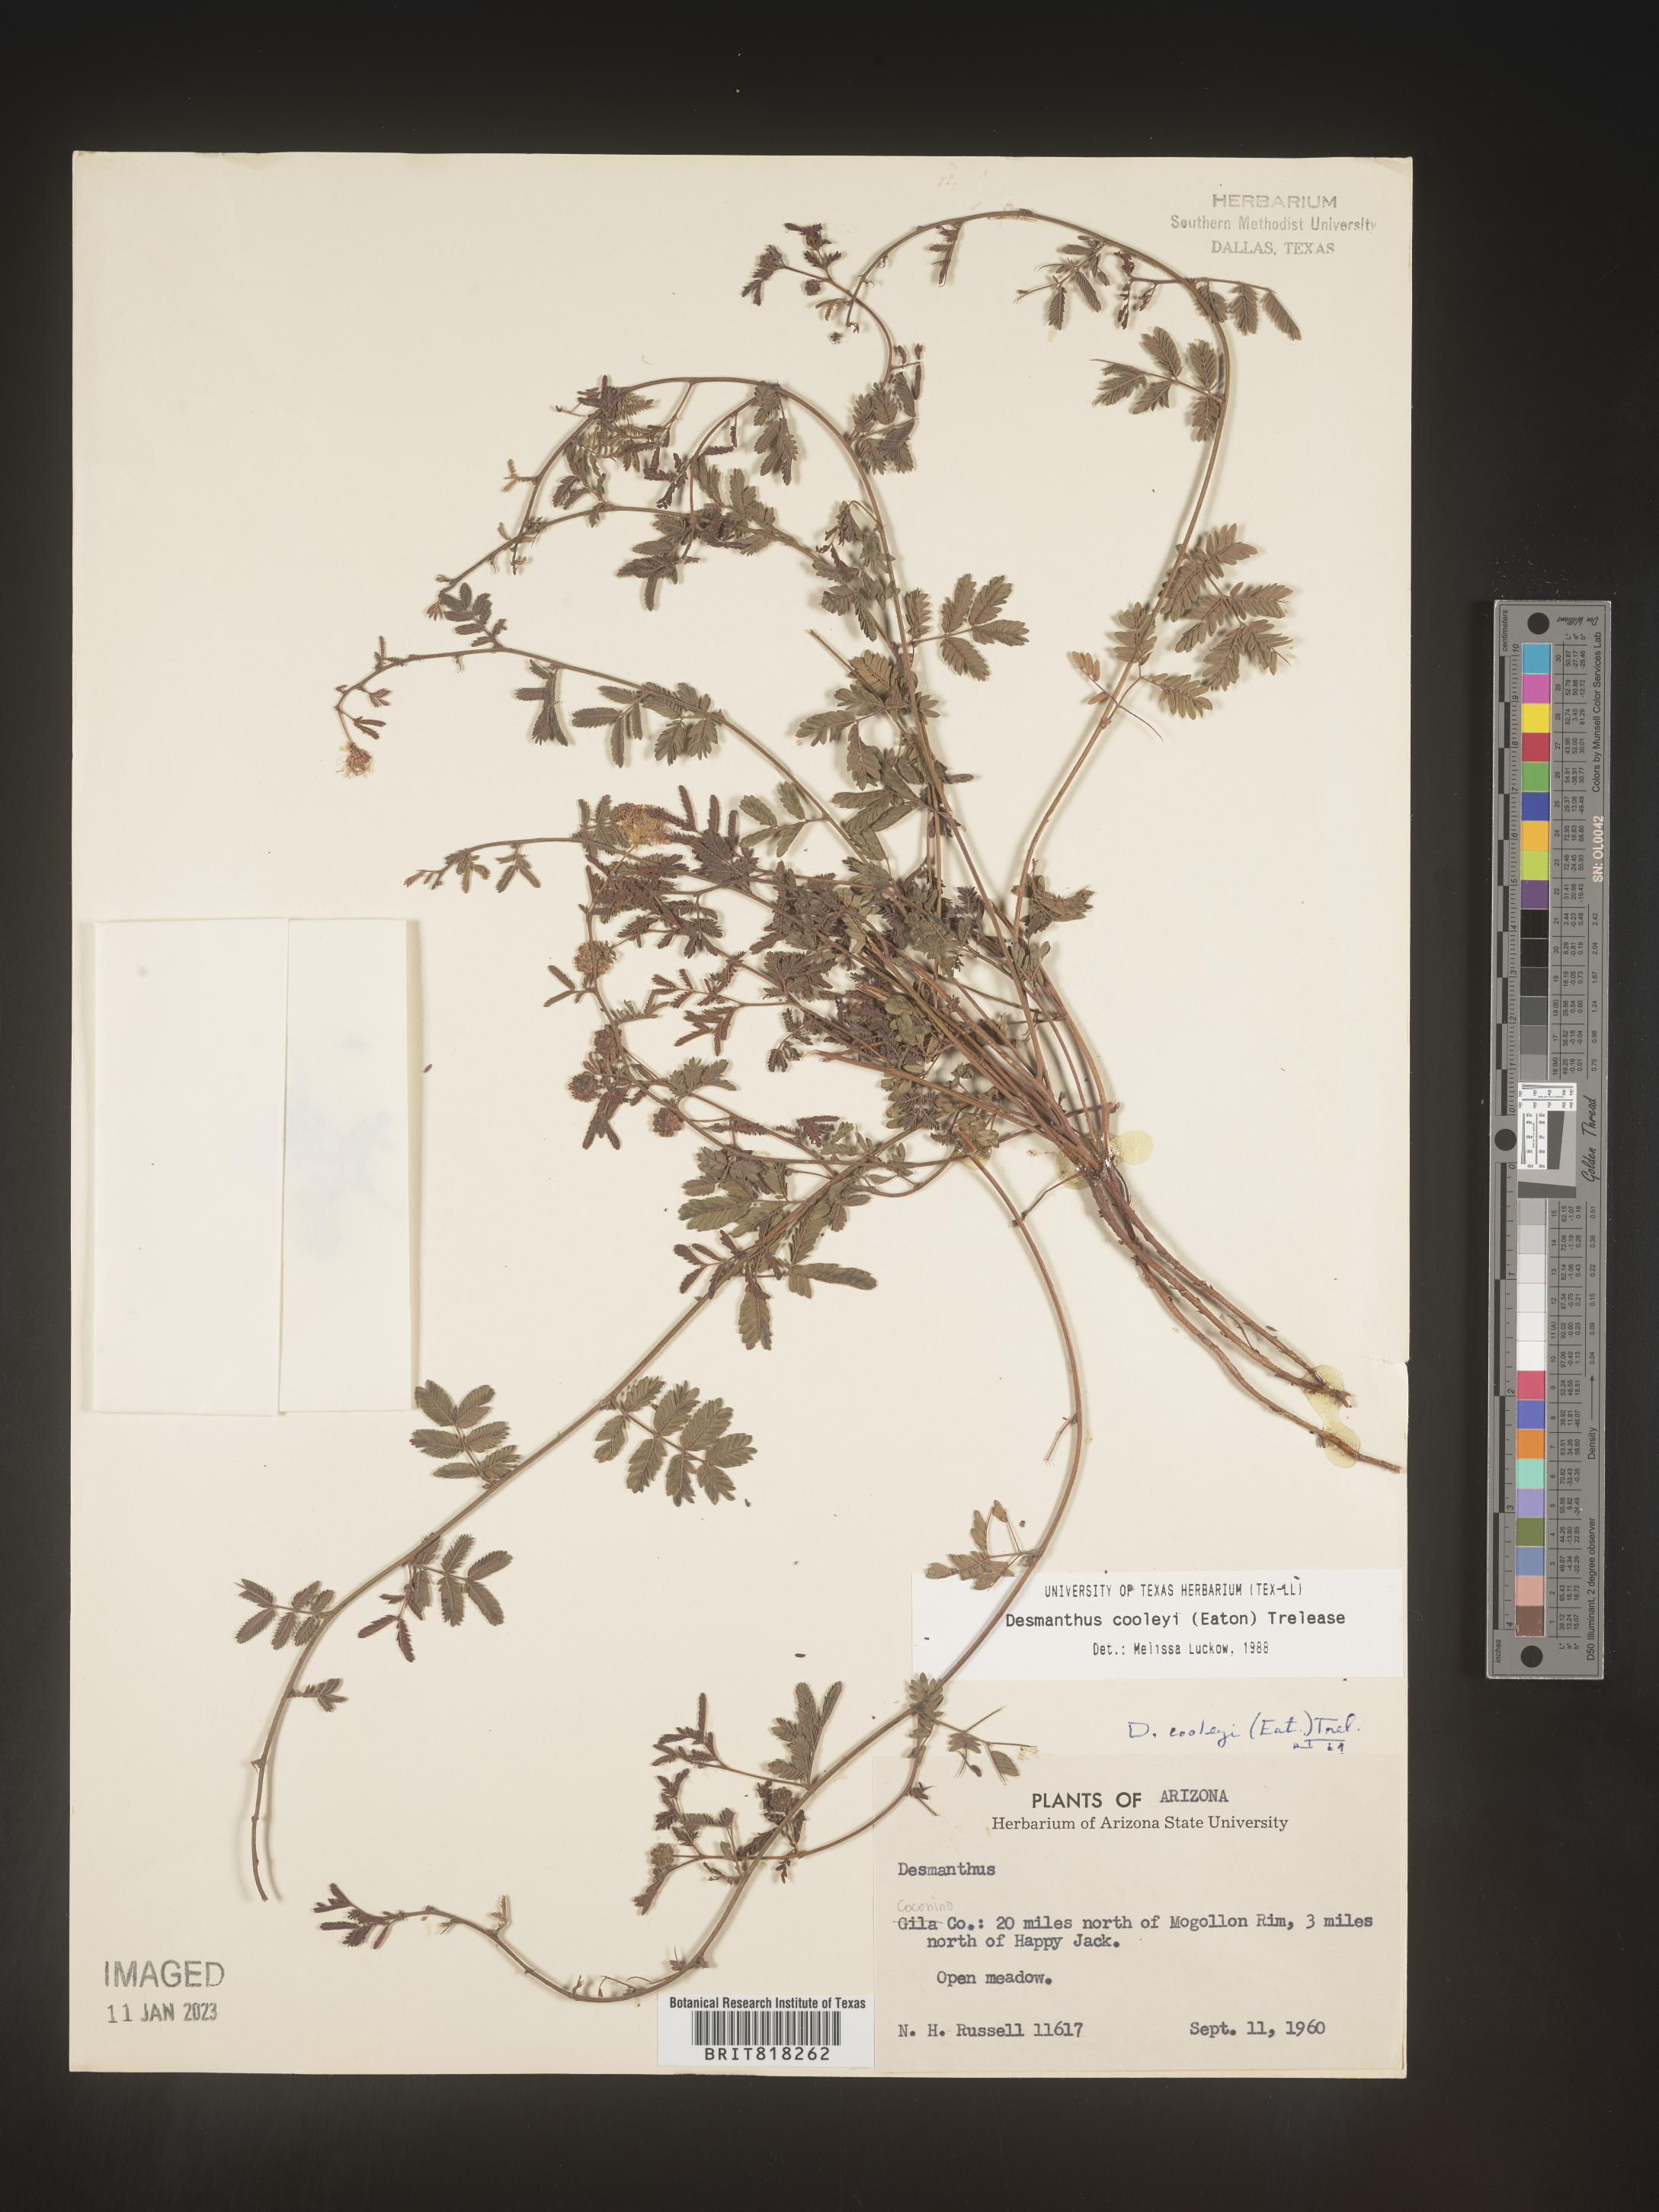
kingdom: Plantae
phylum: Tracheophyta
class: Magnoliopsida
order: Fabales
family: Fabaceae
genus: Desmanthus
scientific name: Desmanthus cooleyi
